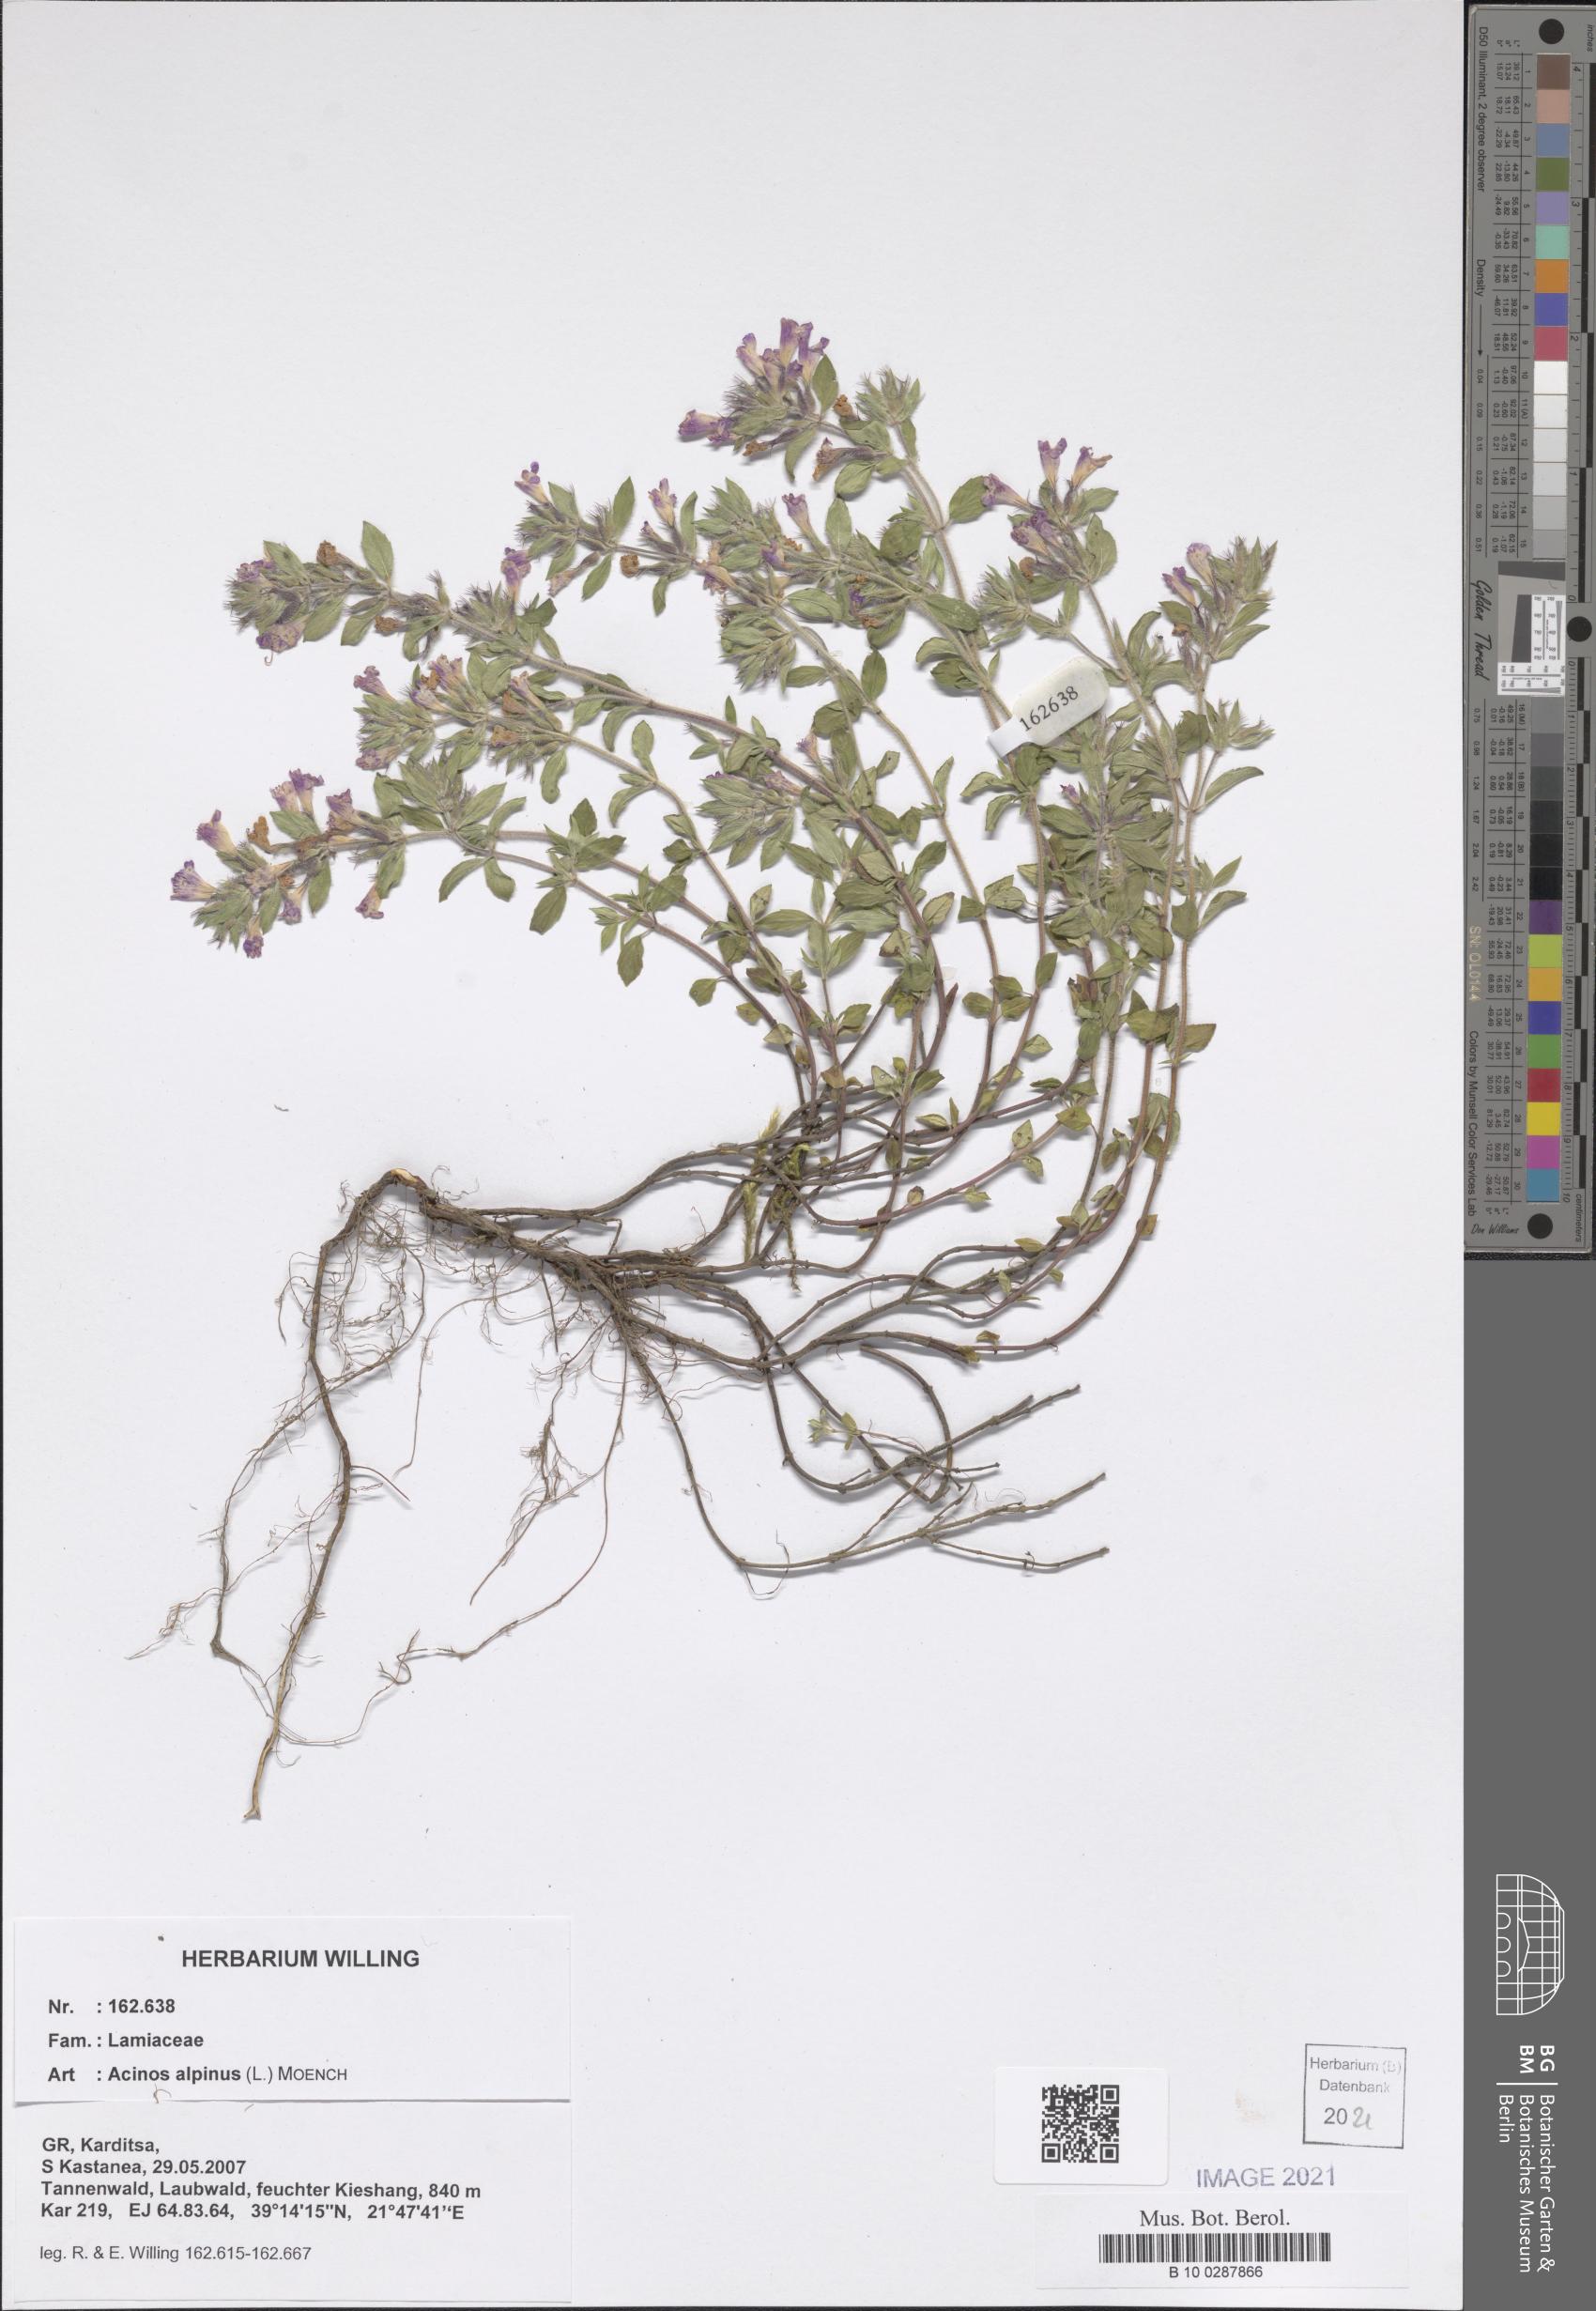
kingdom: Plantae
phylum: Tracheophyta
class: Magnoliopsida
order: Lamiales
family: Lamiaceae
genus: Clinopodium
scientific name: Clinopodium alpinum
